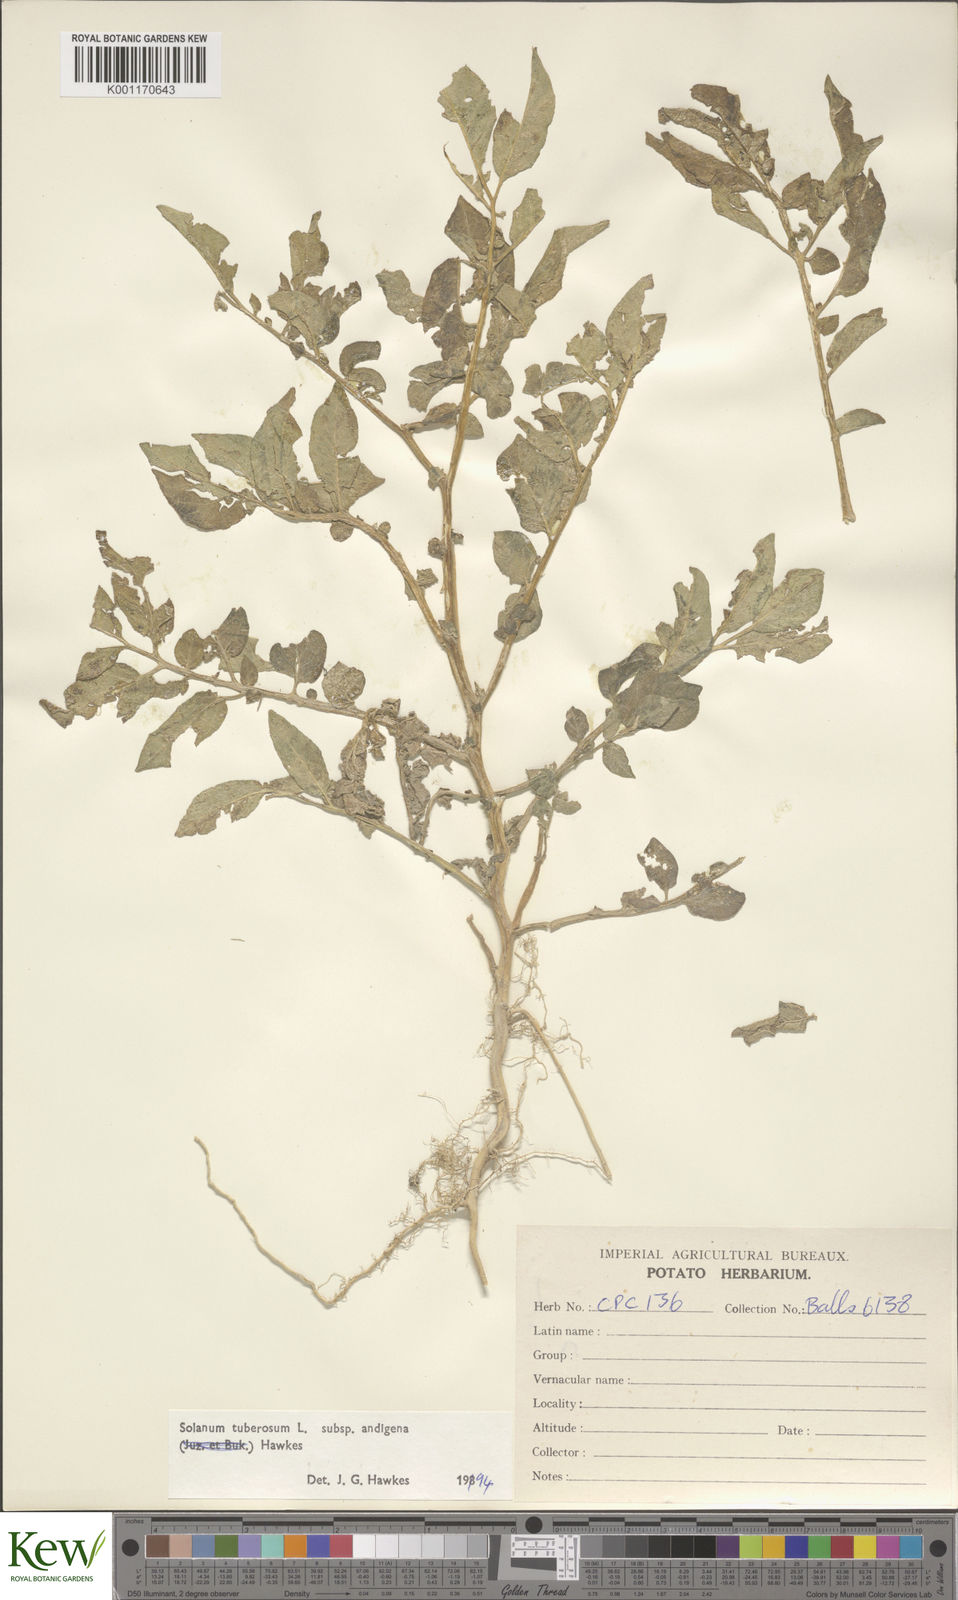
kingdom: Plantae
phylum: Tracheophyta
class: Magnoliopsida
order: Solanales
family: Solanaceae
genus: Solanum
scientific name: Solanum tuberosum
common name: Potato
